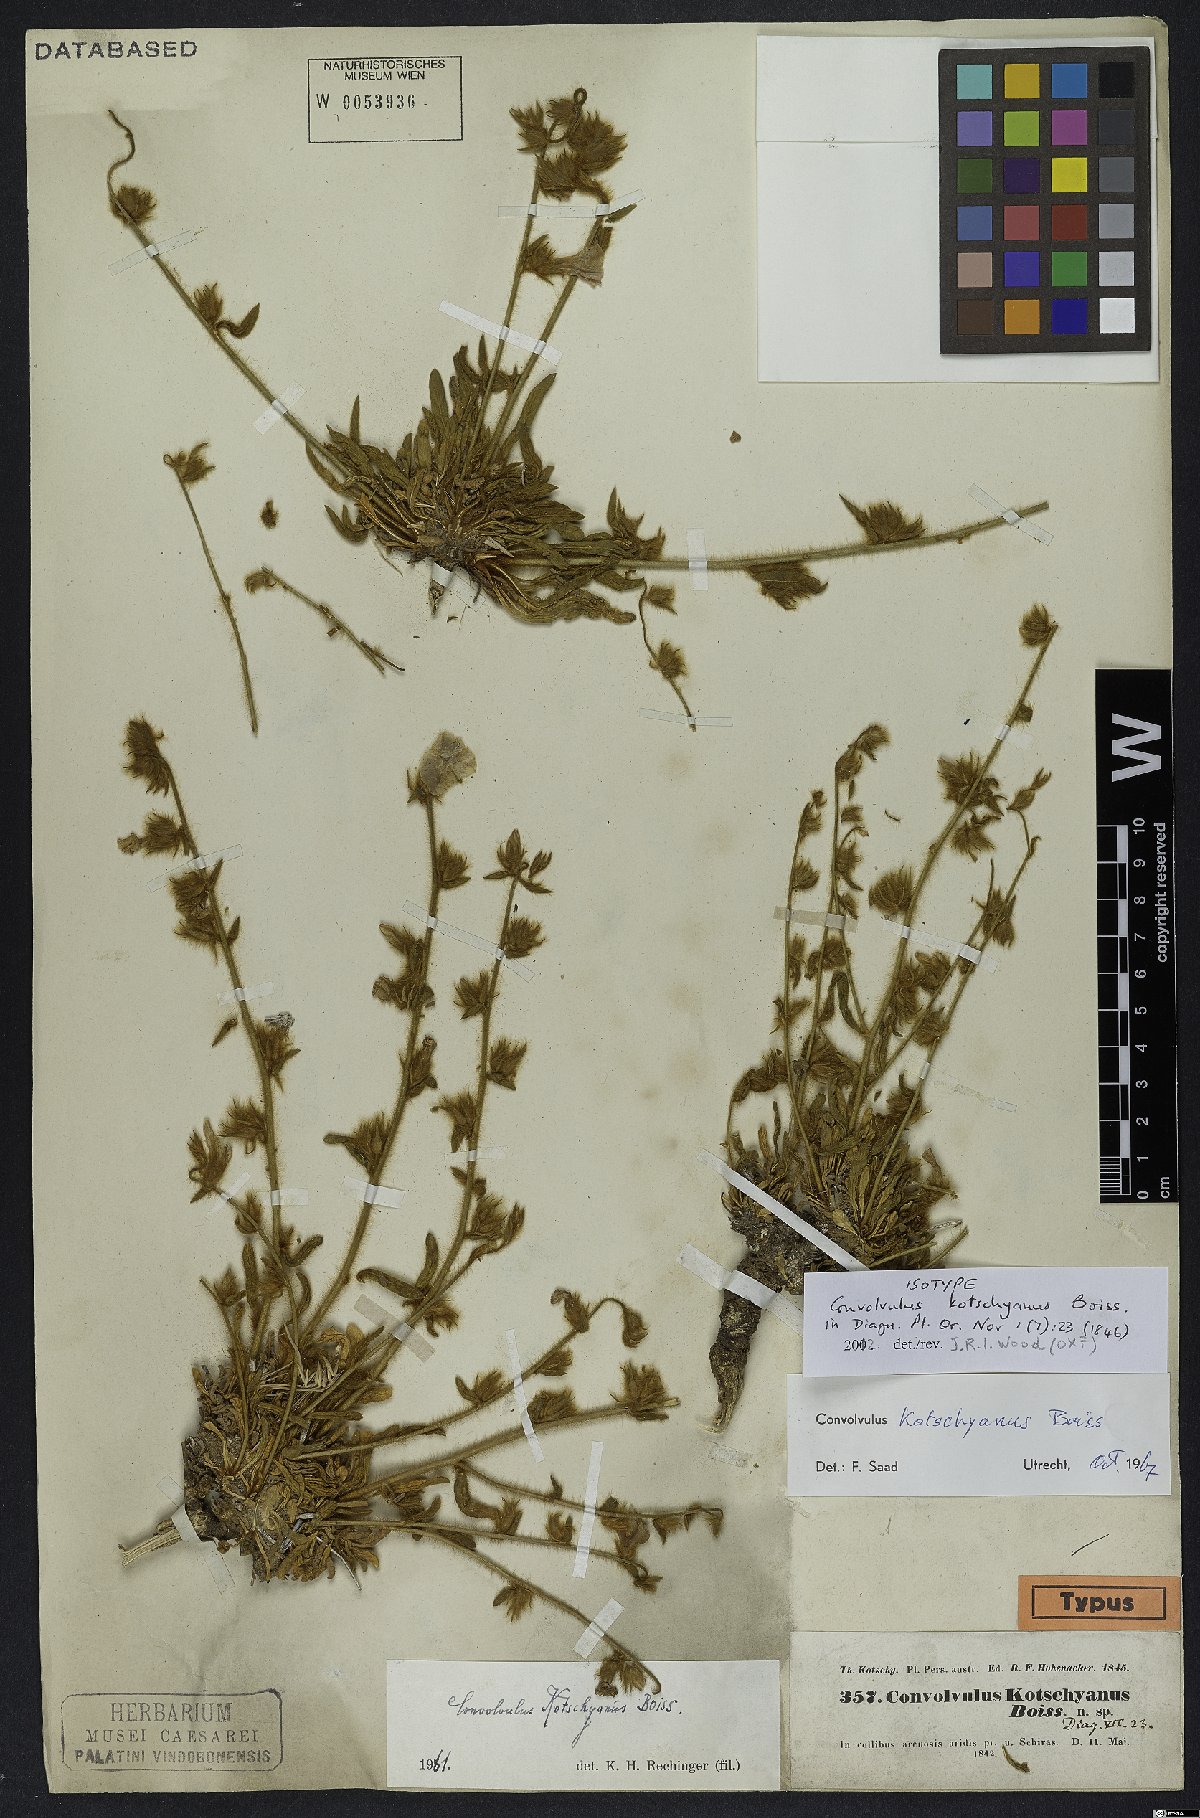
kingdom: Plantae
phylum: Tracheophyta
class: Magnoliopsida
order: Solanales
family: Convolvulaceae
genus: Convolvulus
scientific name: Convolvulus kotschyanus
